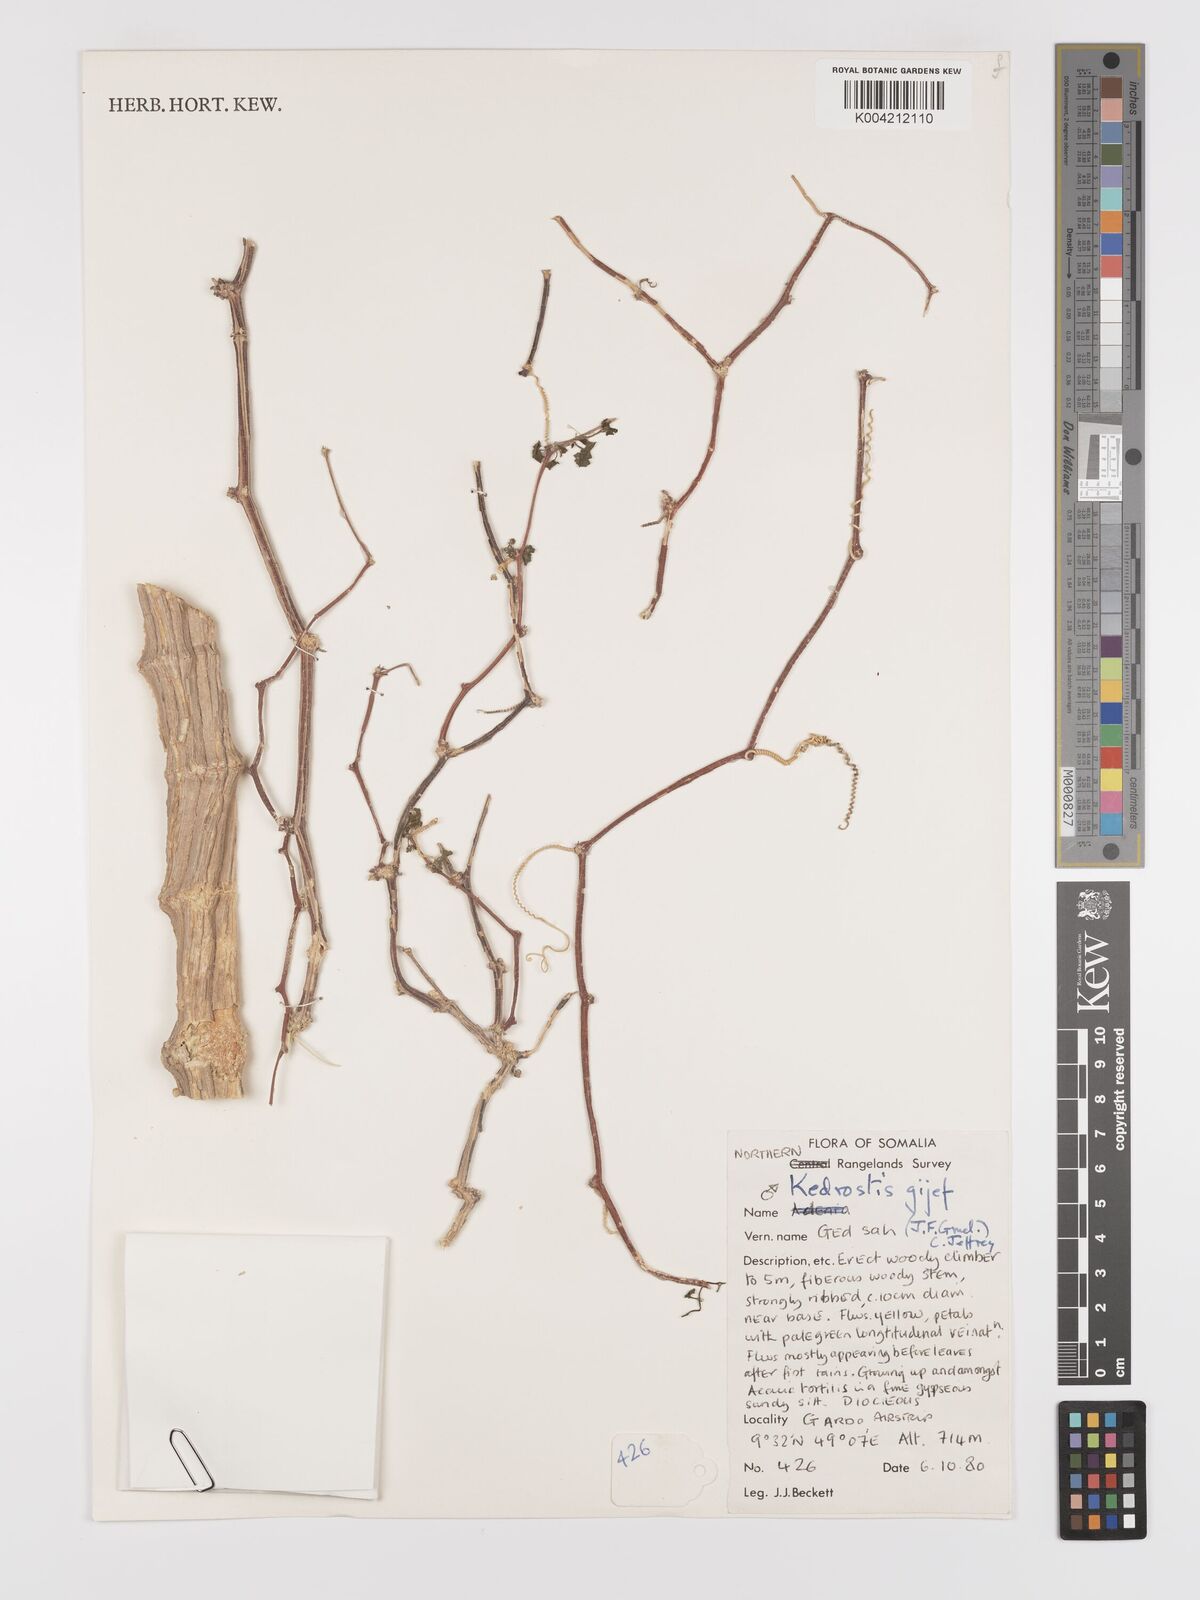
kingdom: Plantae
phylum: Tracheophyta
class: Magnoliopsida
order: Cucurbitales
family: Cucurbitaceae
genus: Kedrostis
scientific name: Kedrostis gijef
